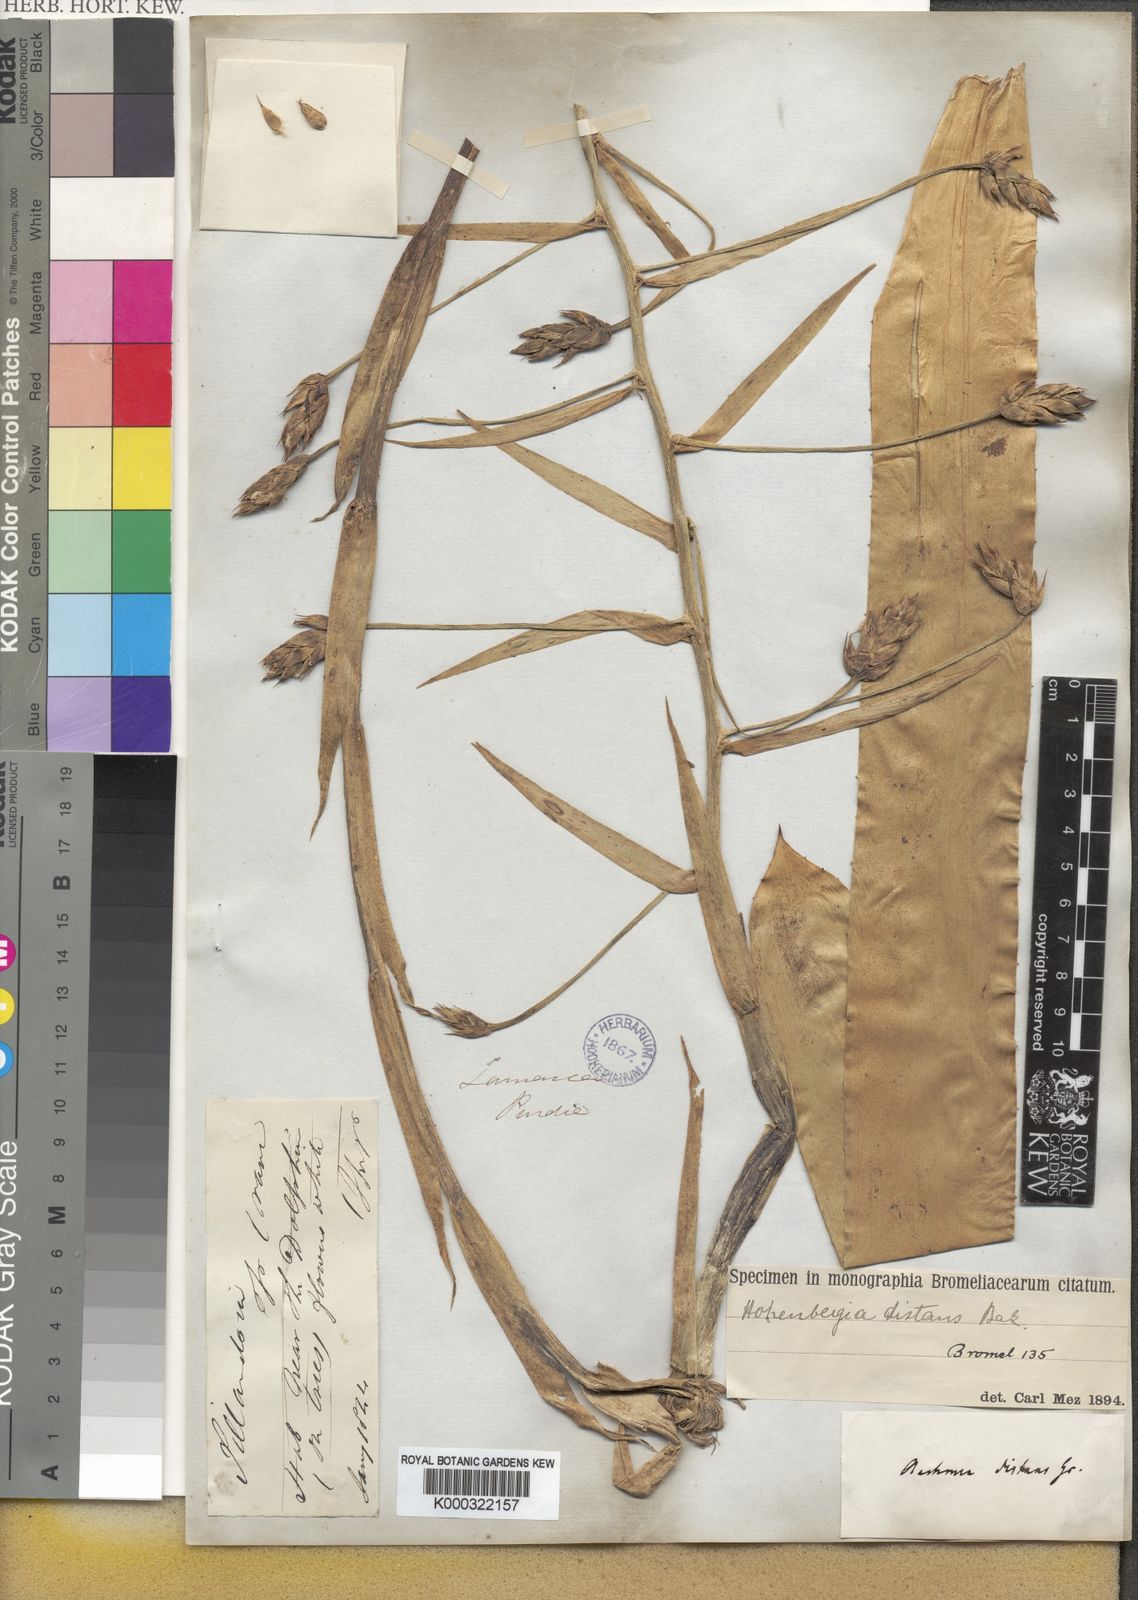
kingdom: Plantae
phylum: Tracheophyta
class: Liliopsida
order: Poales
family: Bromeliaceae
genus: Wittmackia
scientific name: Wittmackia distans
